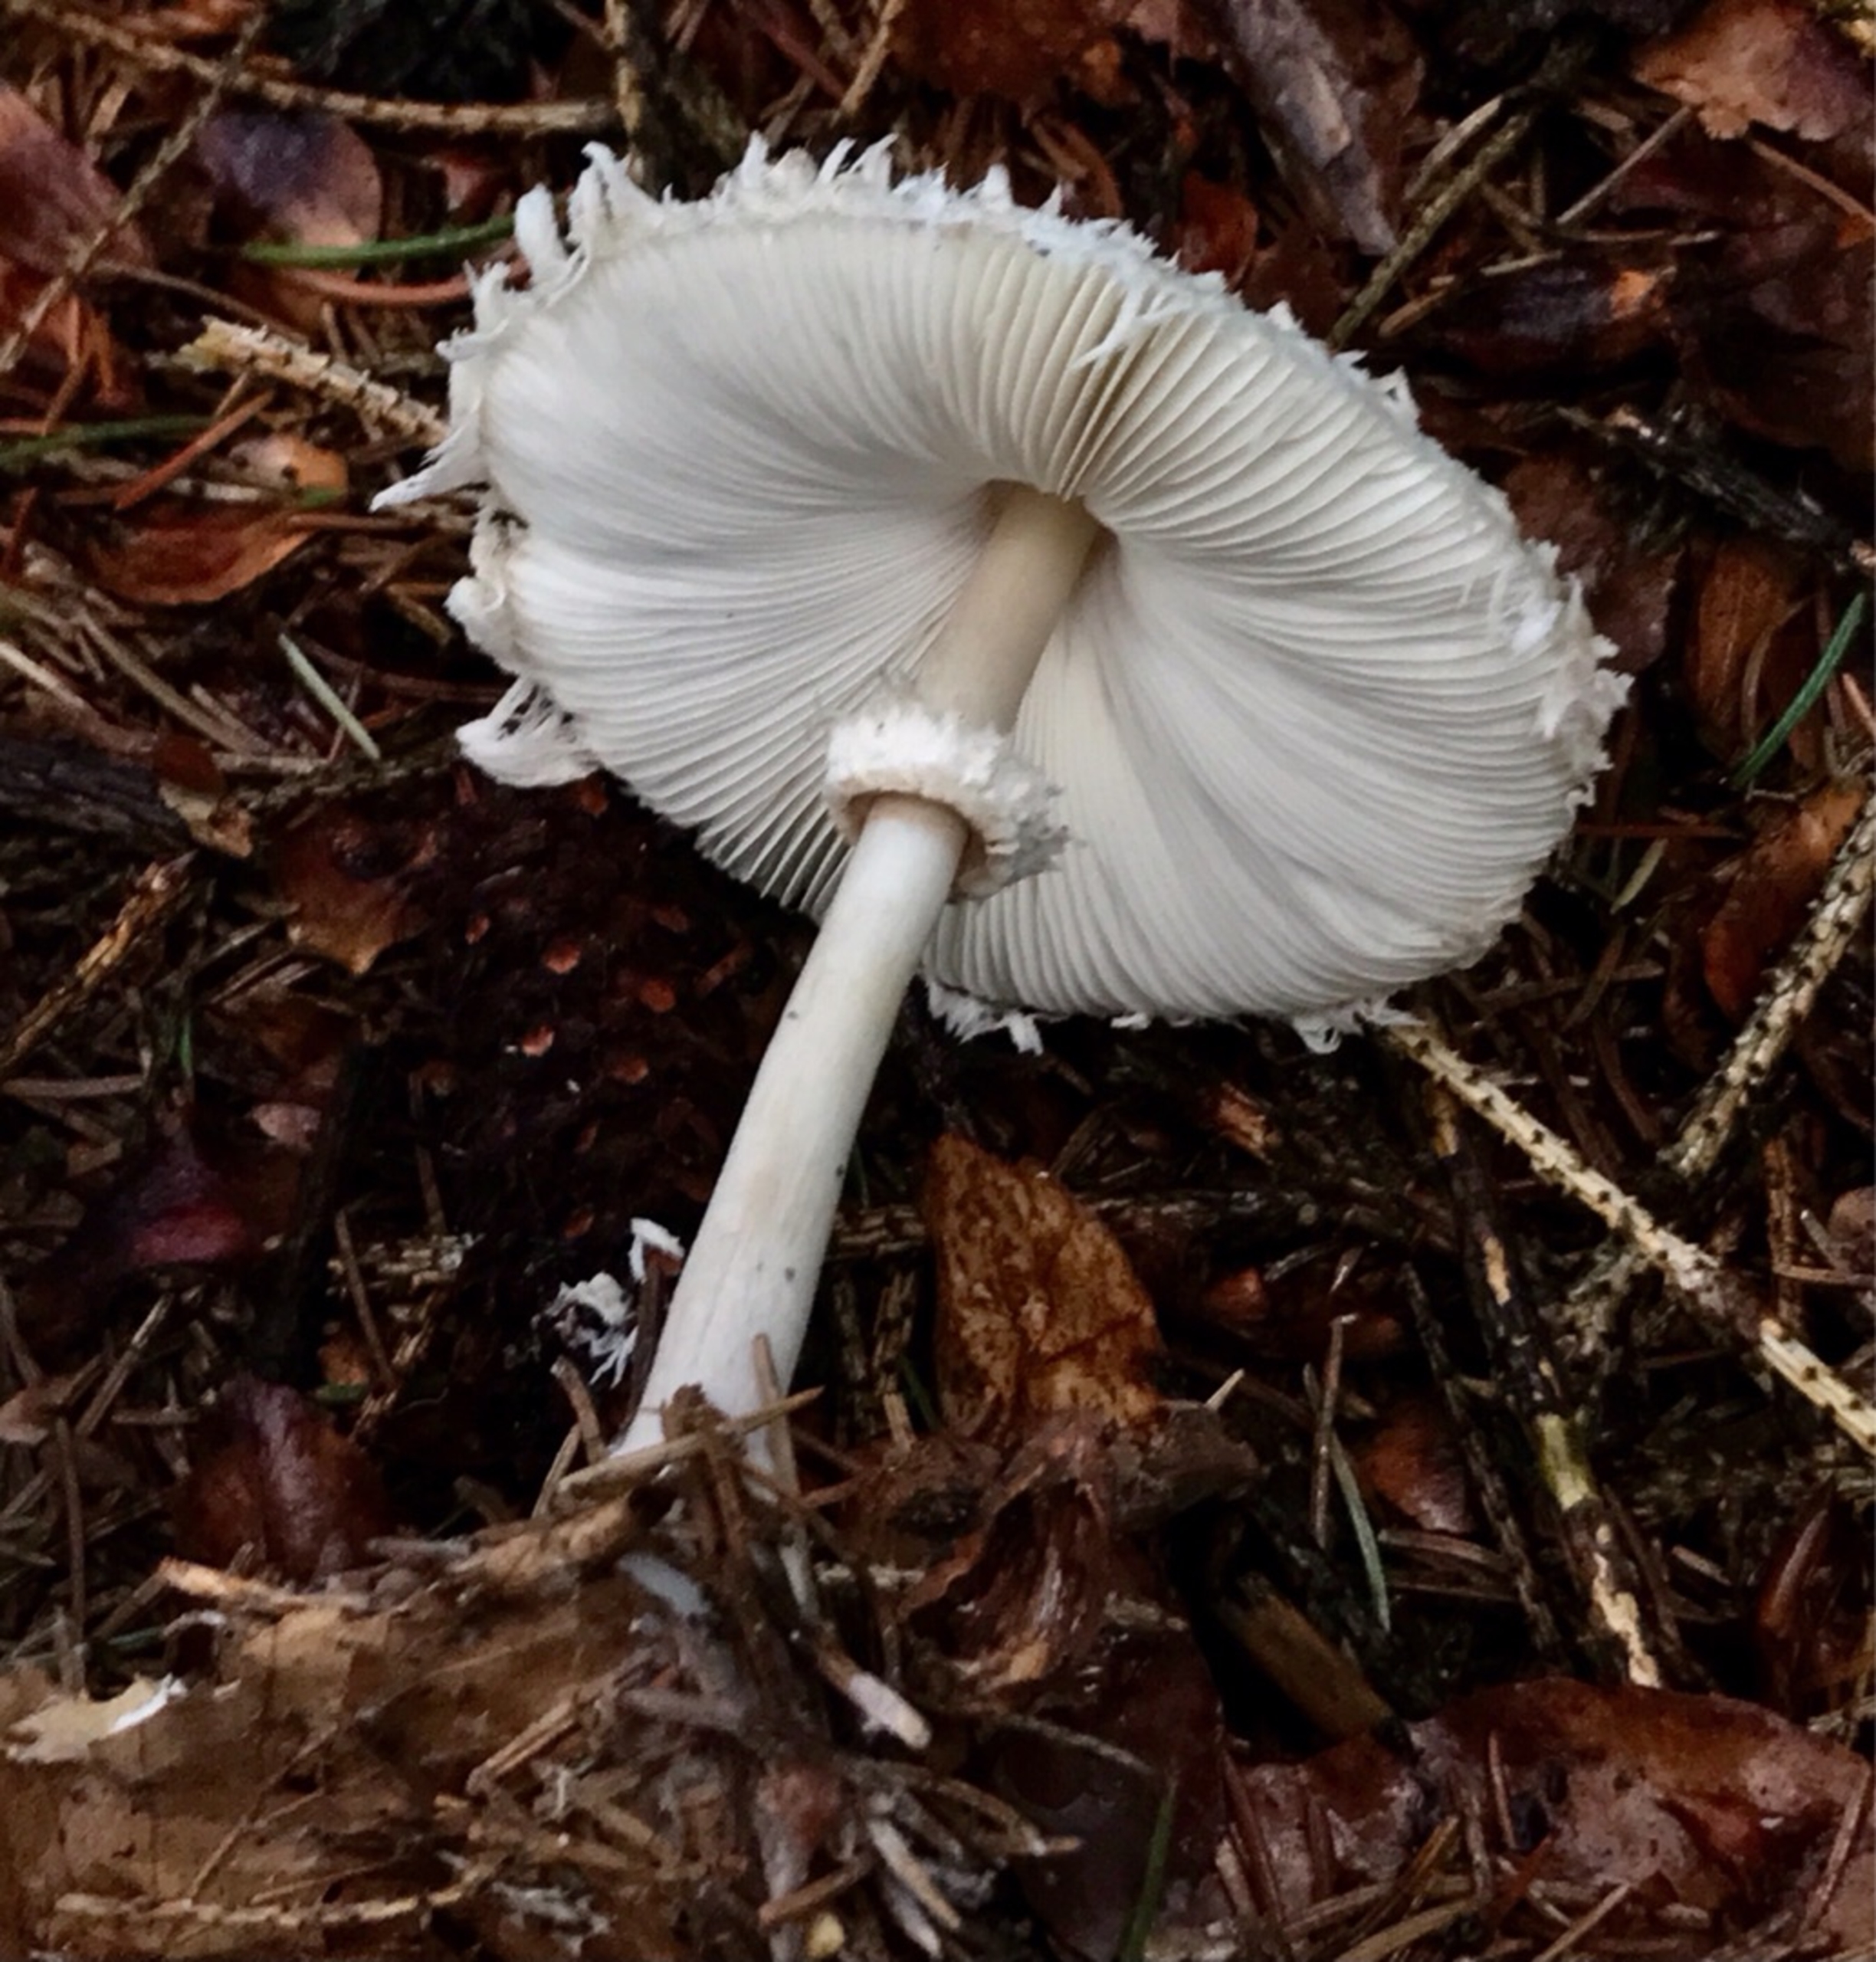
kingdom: Fungi
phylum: Basidiomycota
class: Agaricomycetes
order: Agaricales
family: Agaricaceae
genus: Leucoagaricus
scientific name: Leucoagaricus nympharum
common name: Gran-silkehat
